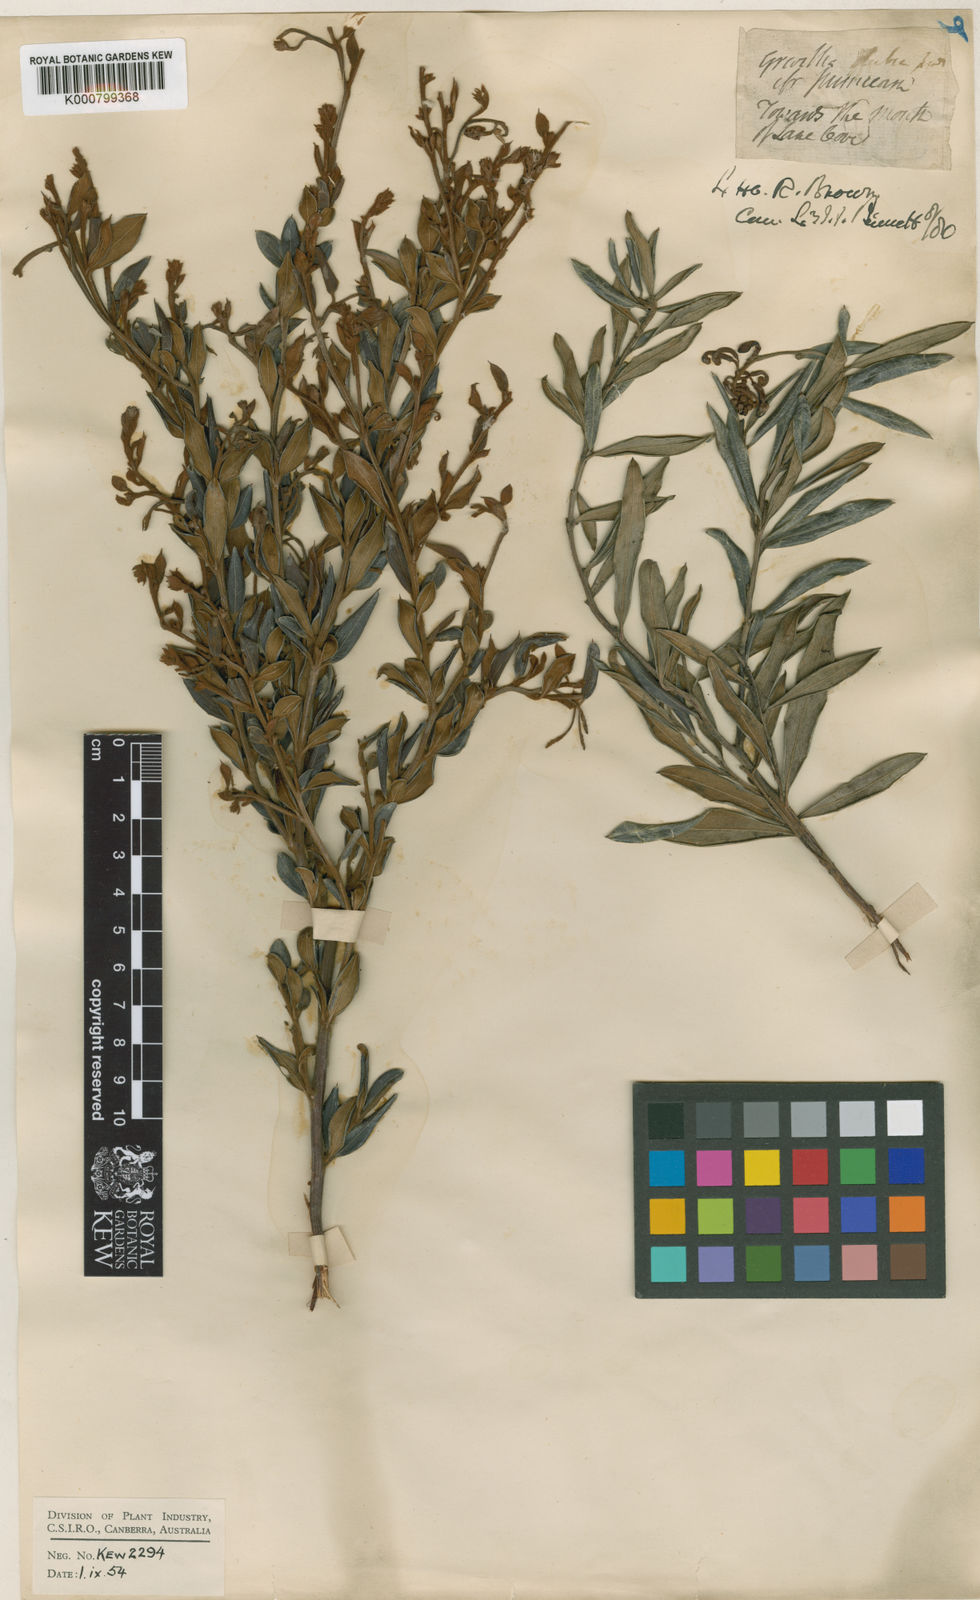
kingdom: Plantae
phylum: Tracheophyta
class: Magnoliopsida
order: Proteales
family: Proteaceae
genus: Grevillea
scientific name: Grevillea speciosa
